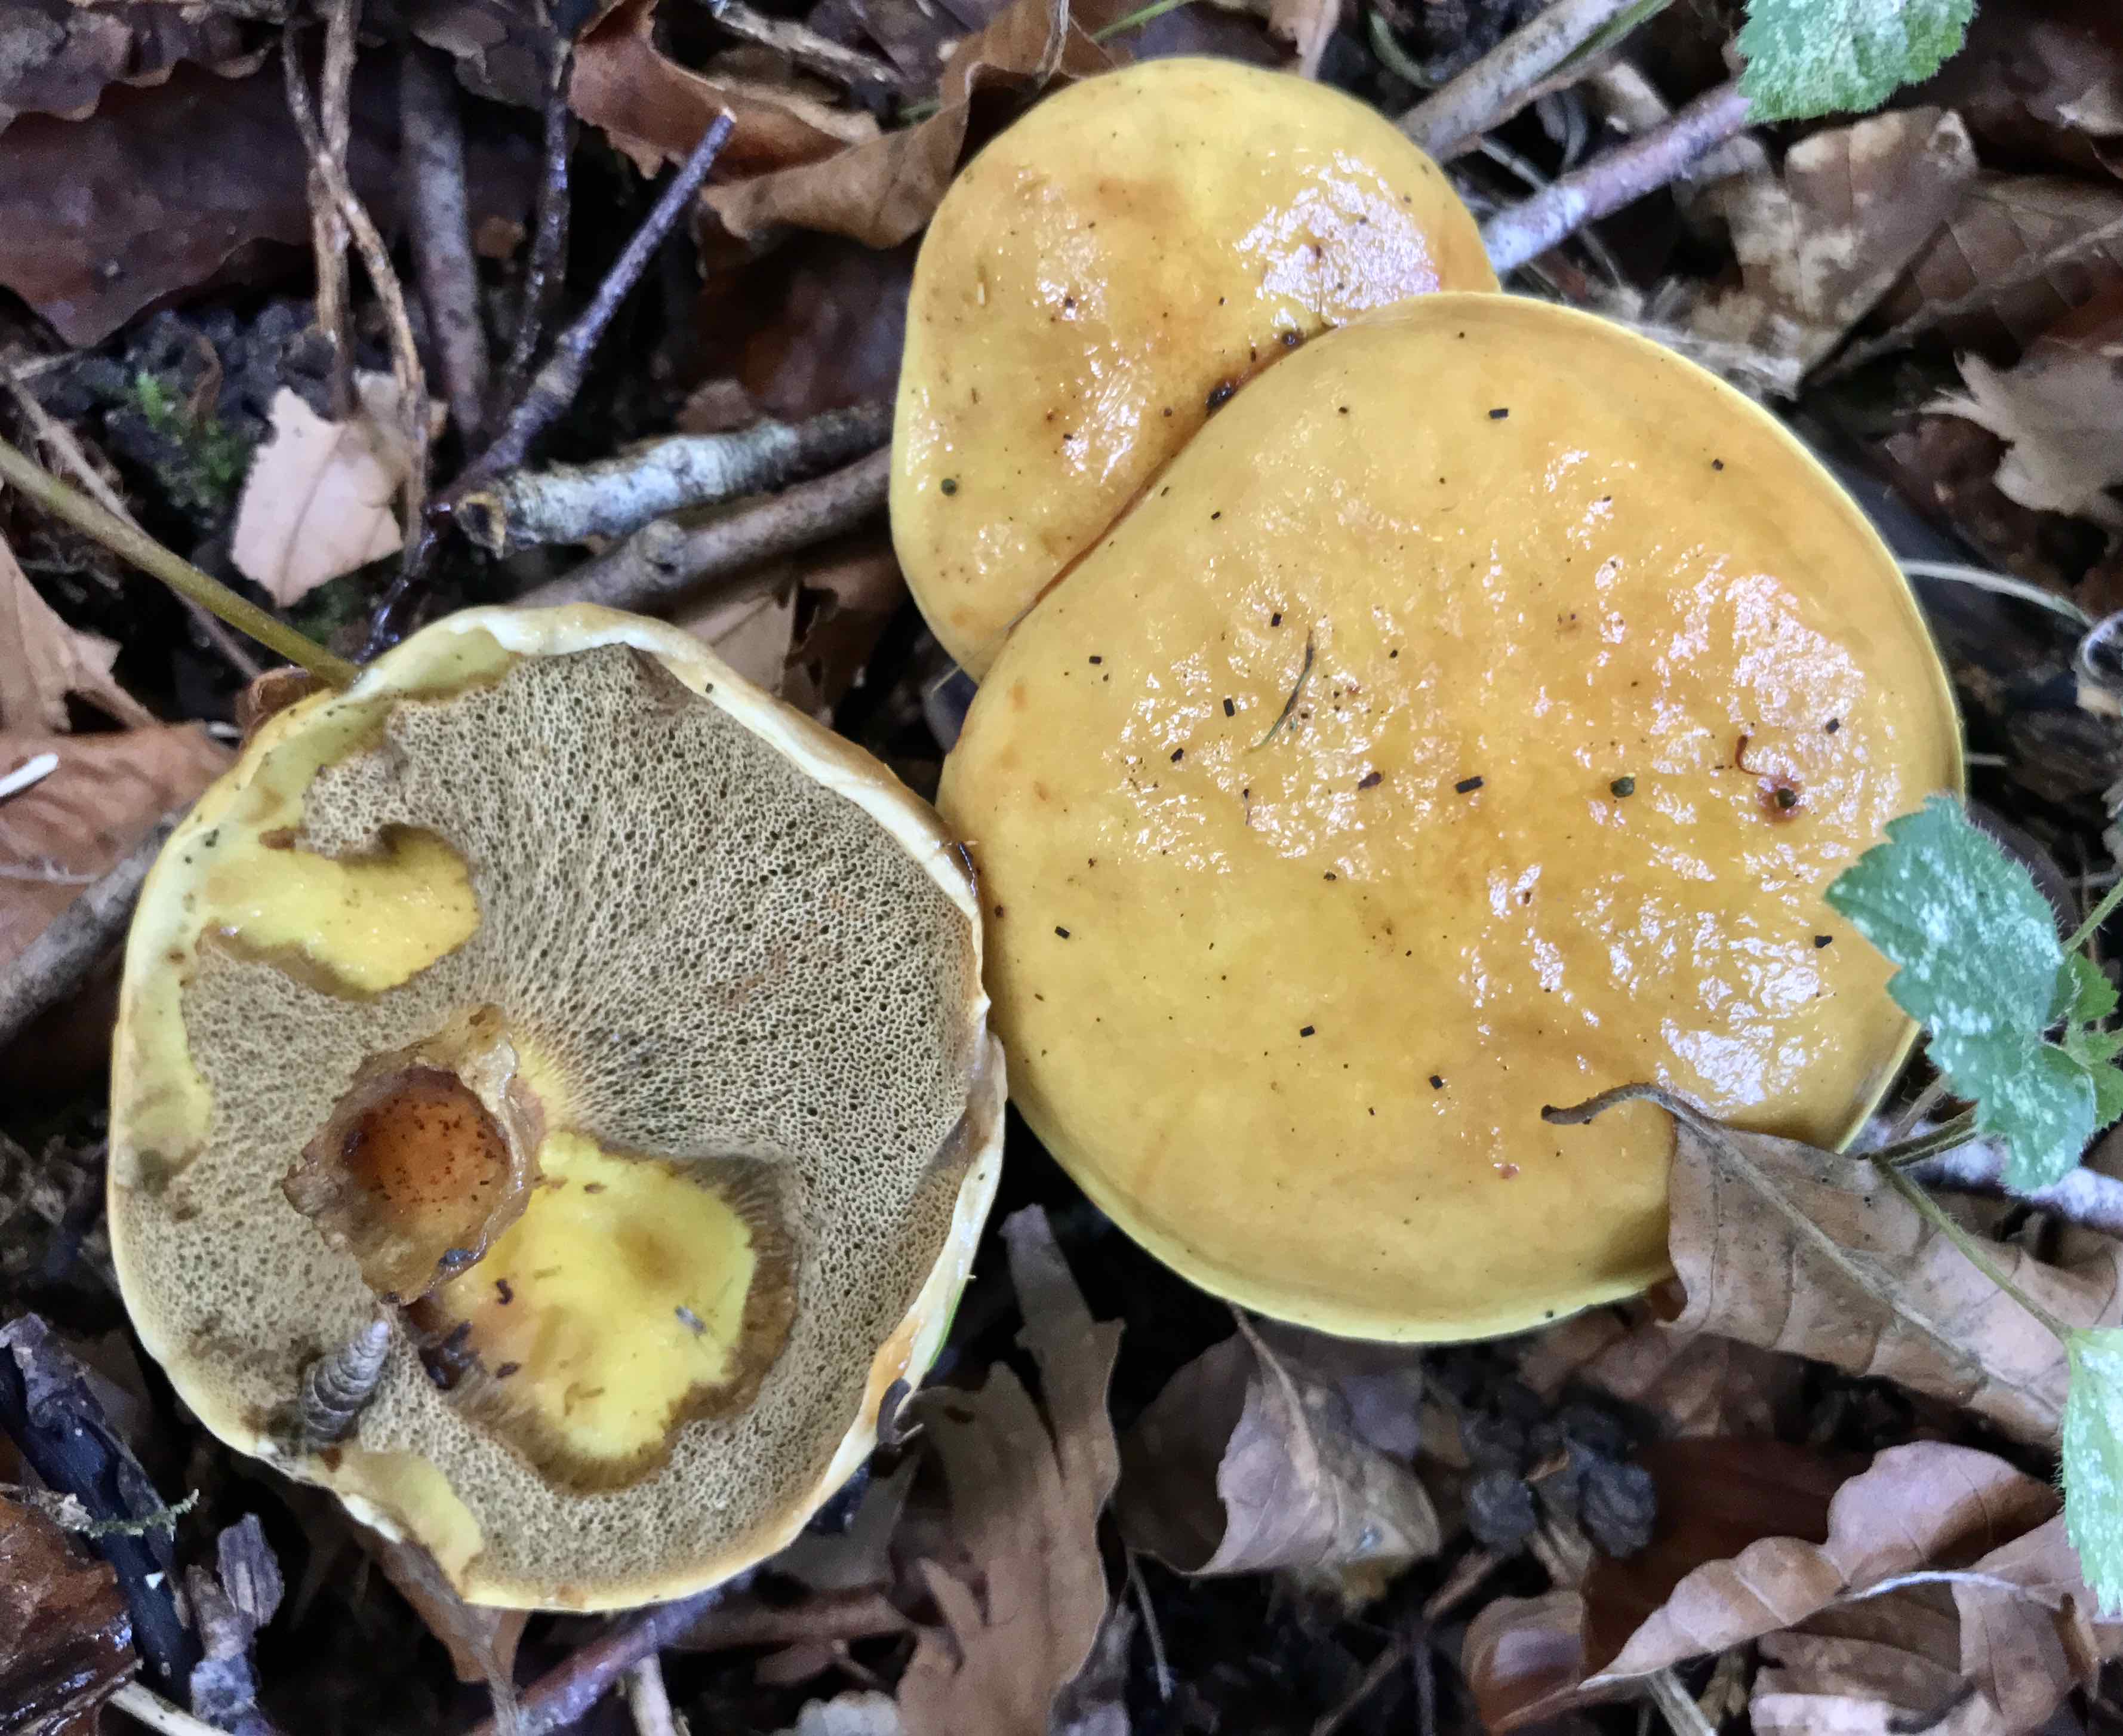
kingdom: Fungi
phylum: Basidiomycota
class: Agaricomycetes
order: Boletales
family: Suillaceae
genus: Suillus
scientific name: Suillus grevillei
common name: lærke-slimrørhat
